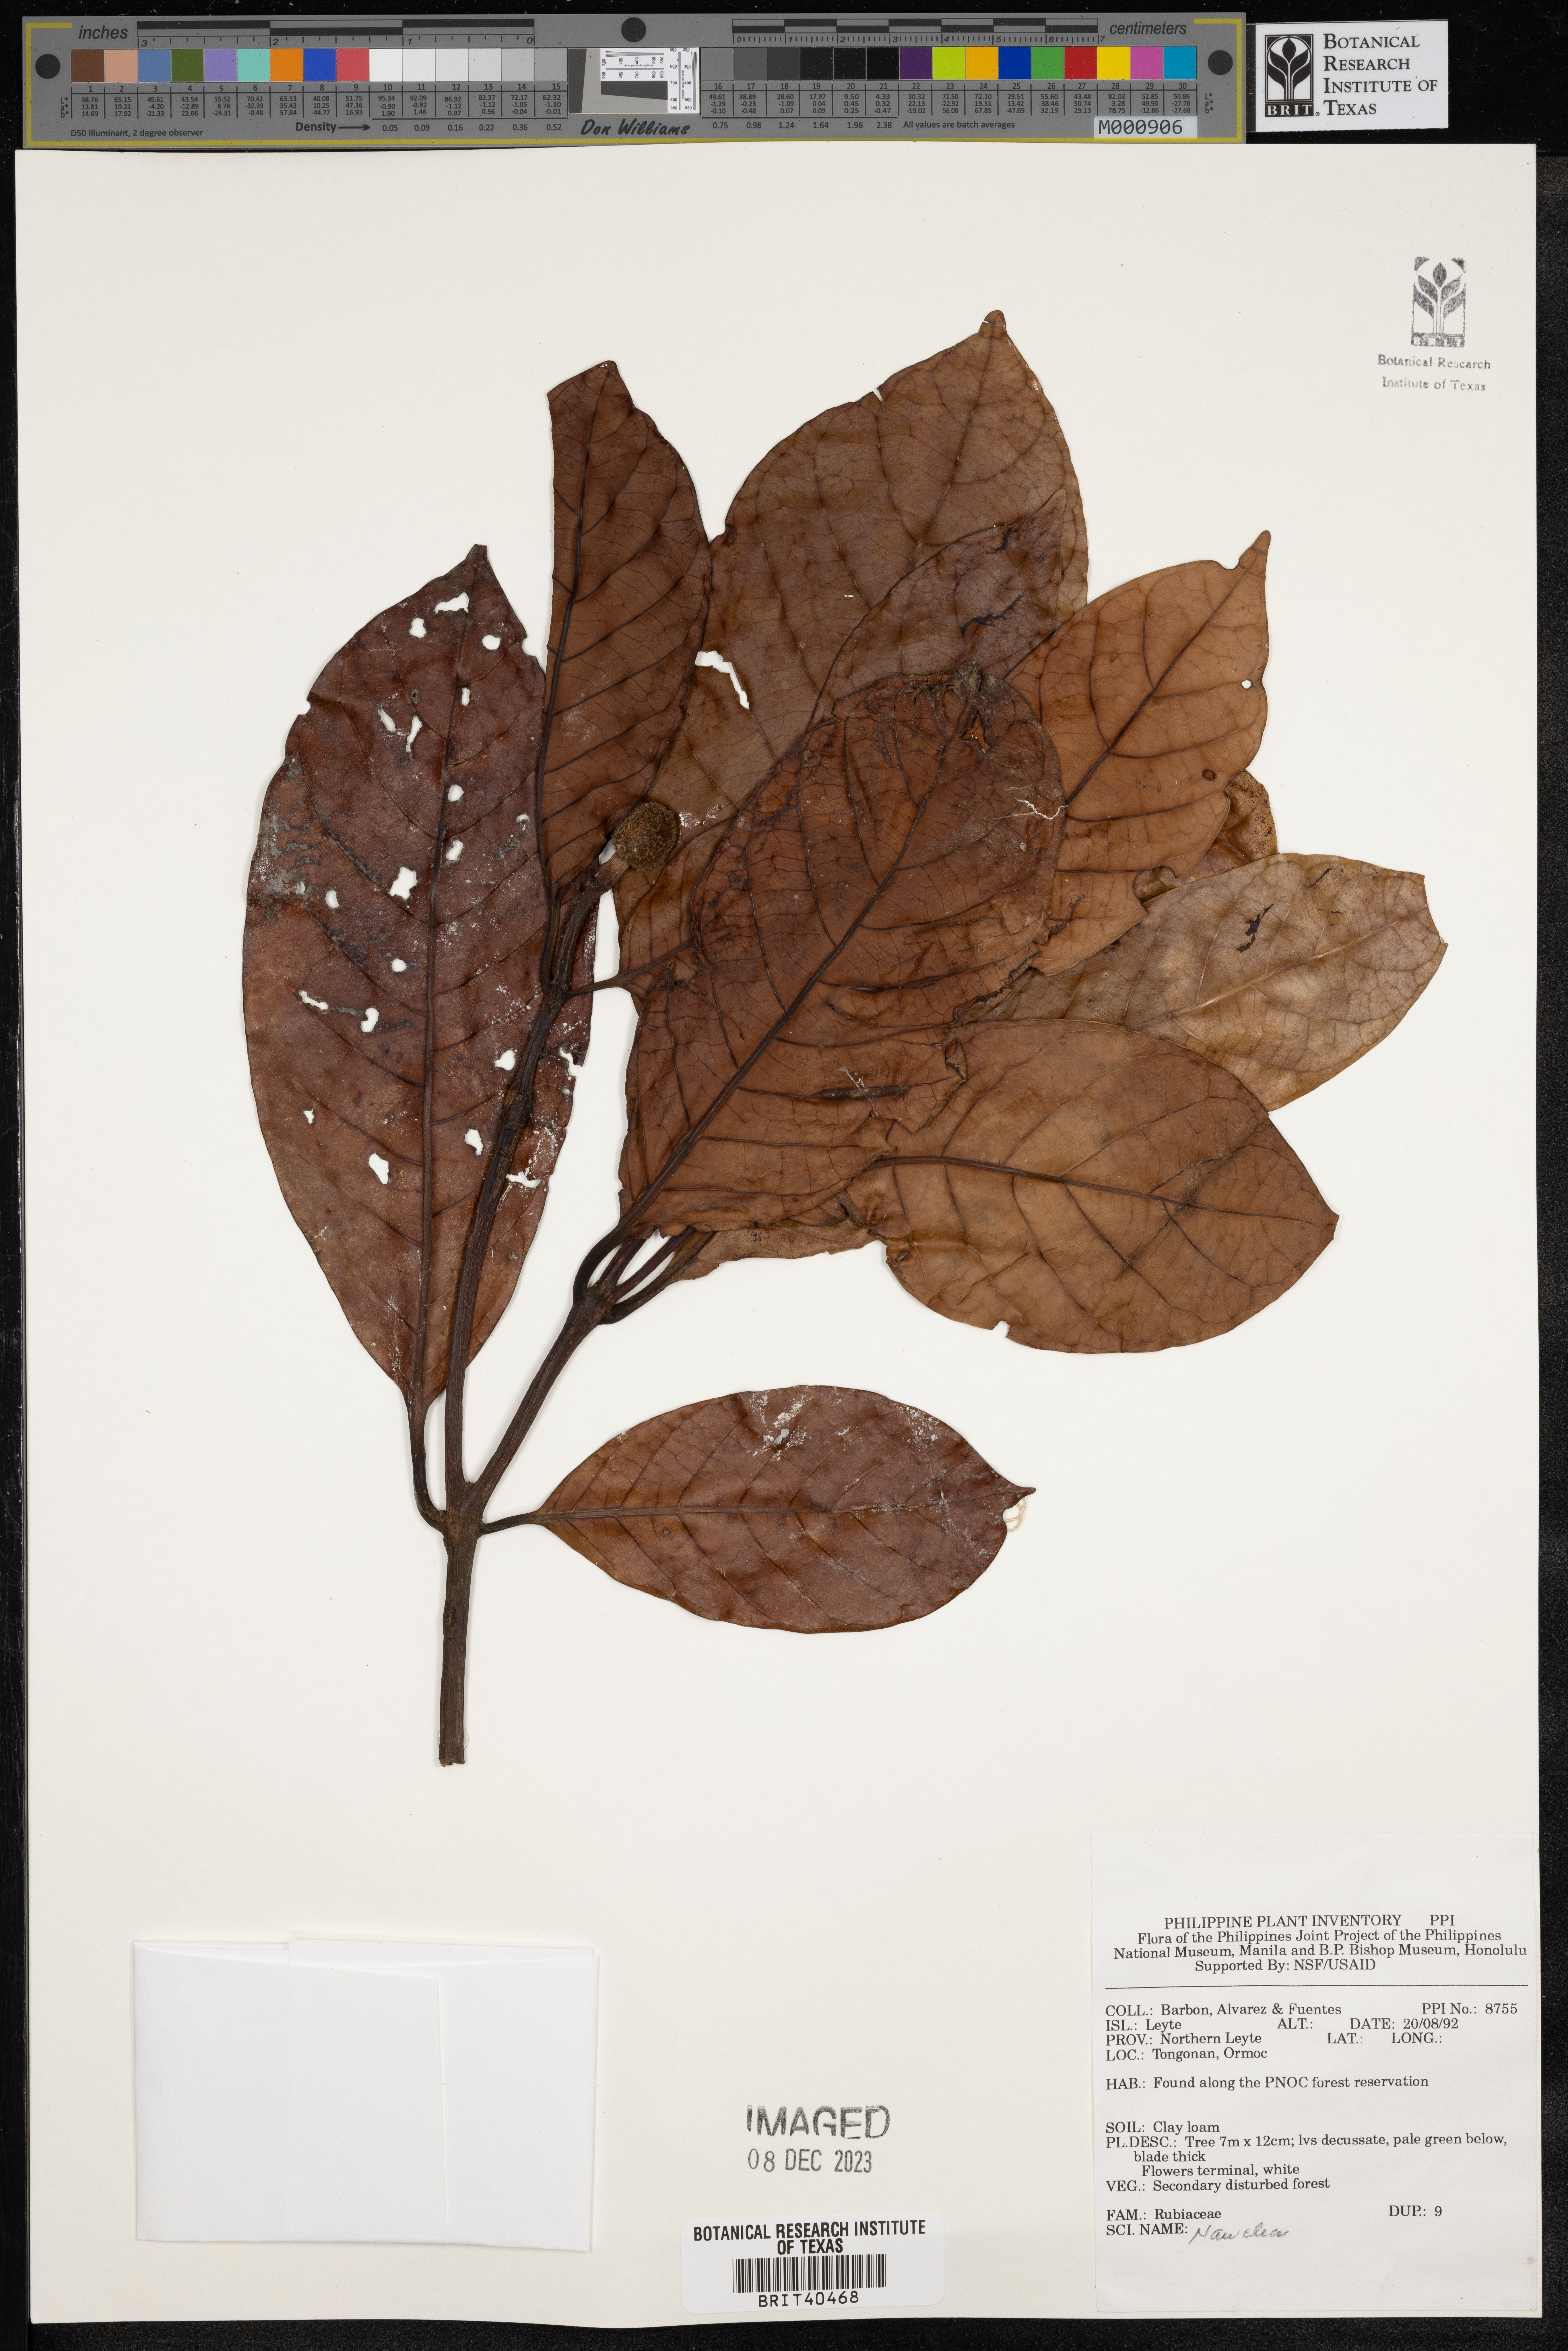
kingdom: Plantae
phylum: Tracheophyta
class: Magnoliopsida
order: Gentianales
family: Rubiaceae
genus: Nauclea
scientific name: Nauclea
